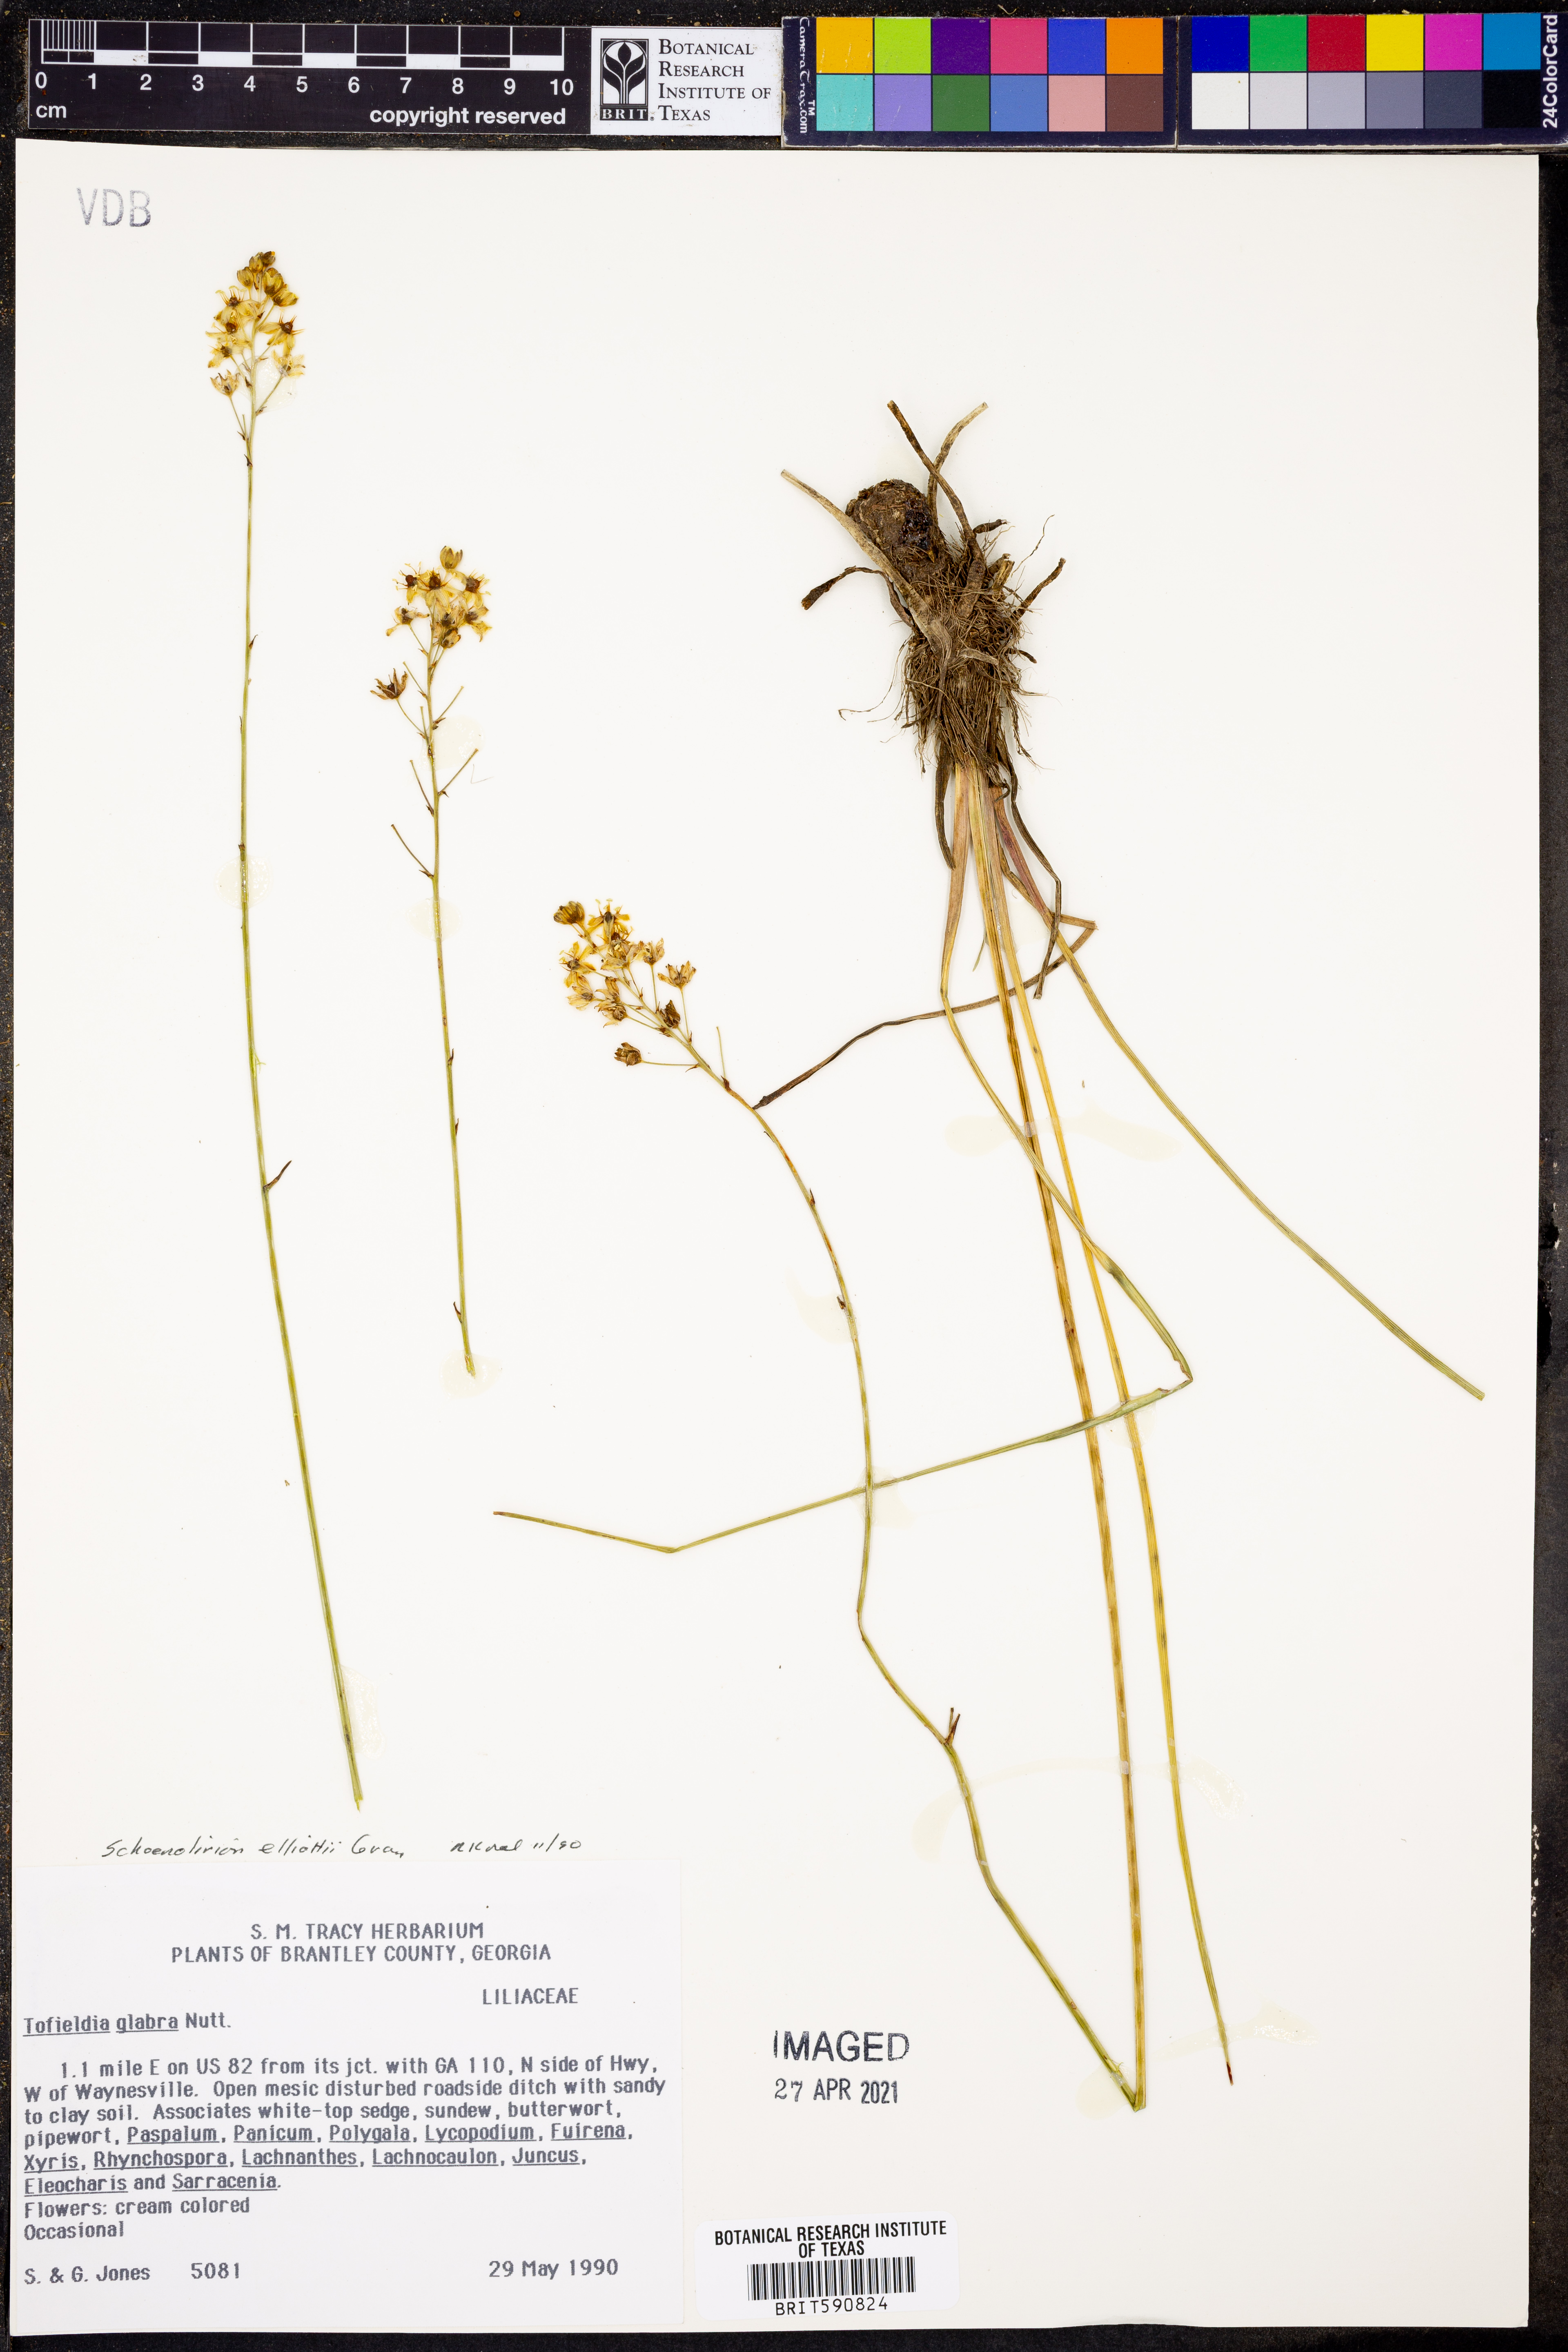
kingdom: Plantae
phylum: Tracheophyta
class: Liliopsida
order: Alismatales
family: Tofieldiaceae
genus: Tofieldia
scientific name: Tofieldia glabra
